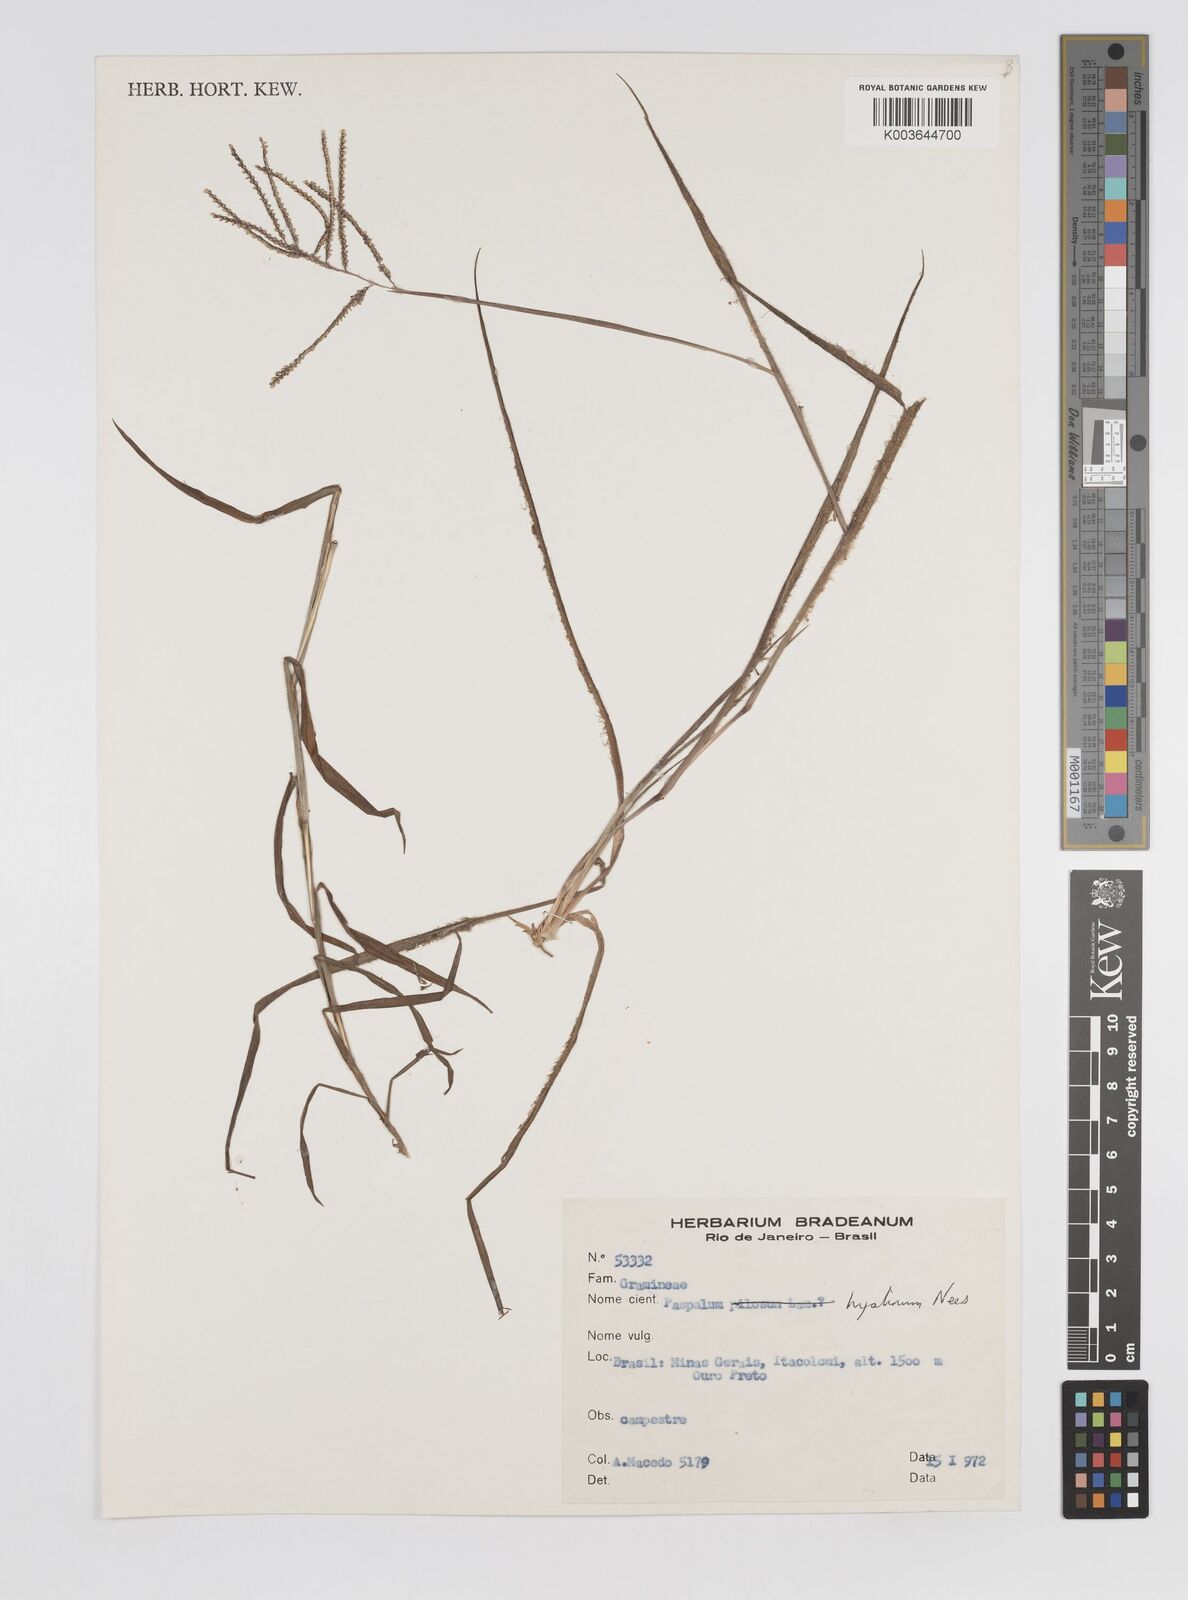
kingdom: Plantae
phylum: Tracheophyta
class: Liliopsida
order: Poales
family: Poaceae
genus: Paspalum
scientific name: Paspalum hyalinum
